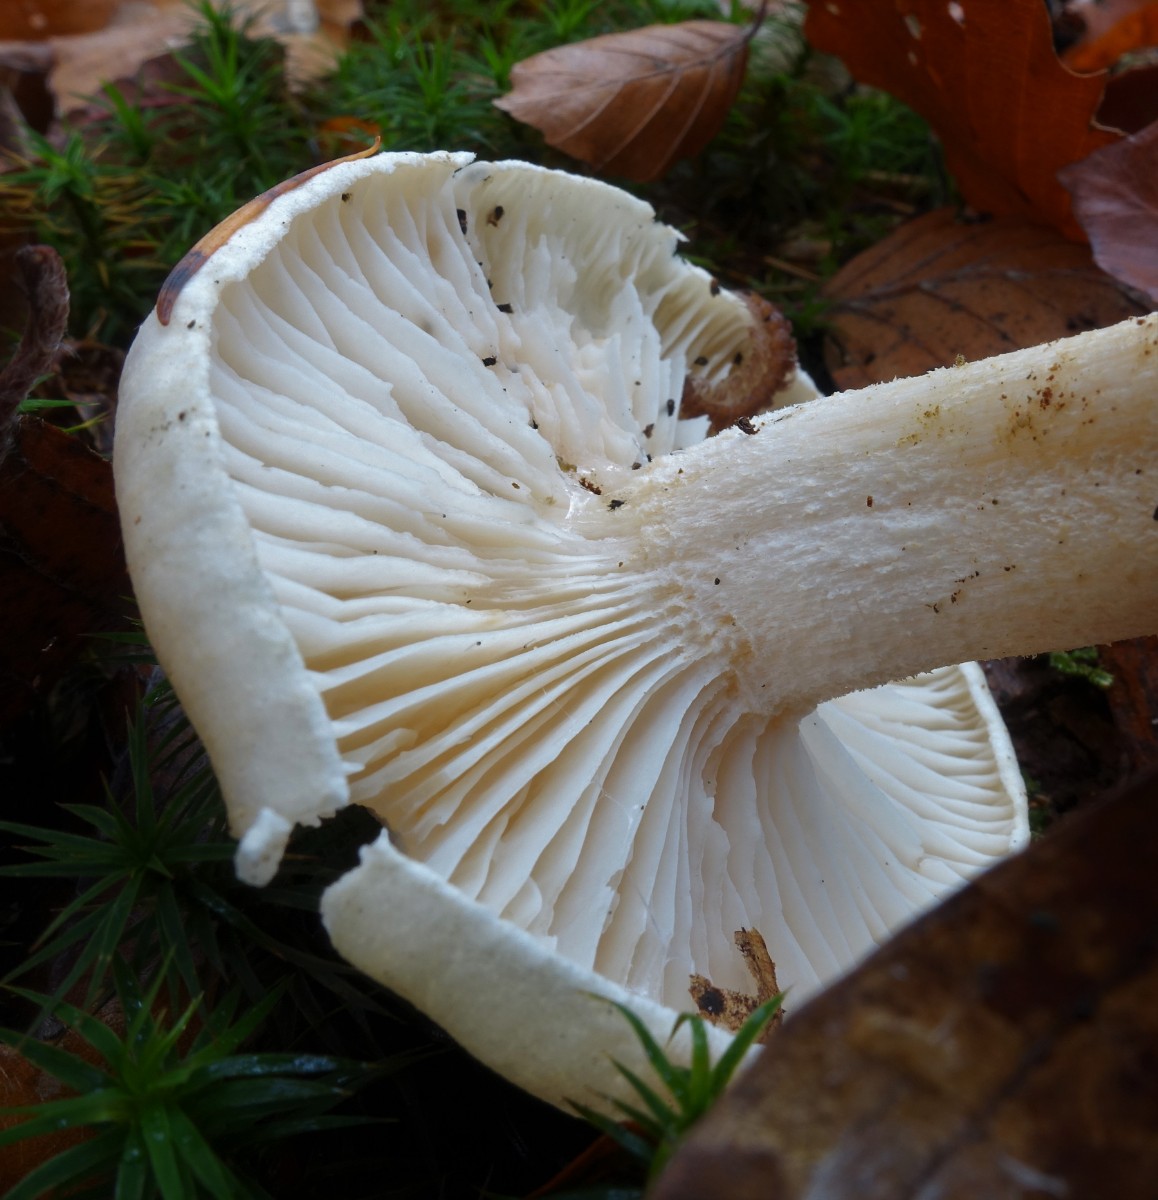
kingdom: Fungi
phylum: Basidiomycota
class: Agaricomycetes
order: Agaricales
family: Hygrophoraceae
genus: Hygrophorus
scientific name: Hygrophorus penarius
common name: spiselig sneglehat
